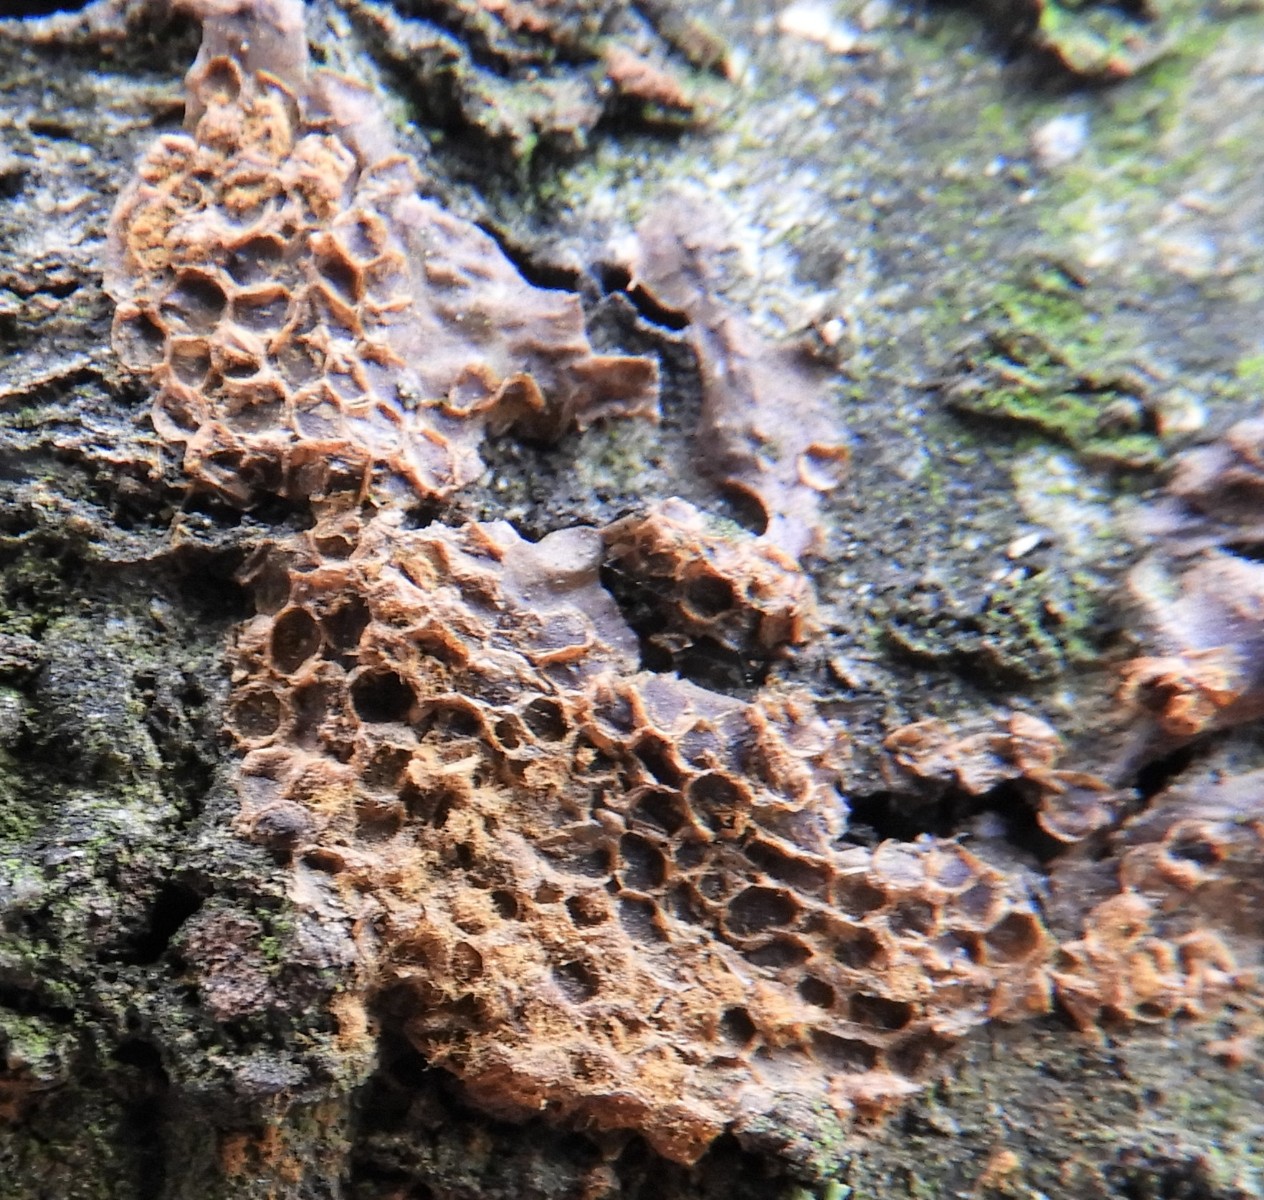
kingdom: Protozoa
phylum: Mycetozoa
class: Myxomycetes
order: Trichiales
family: Trichiaceae
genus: Trichia
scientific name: Trichia contorta
